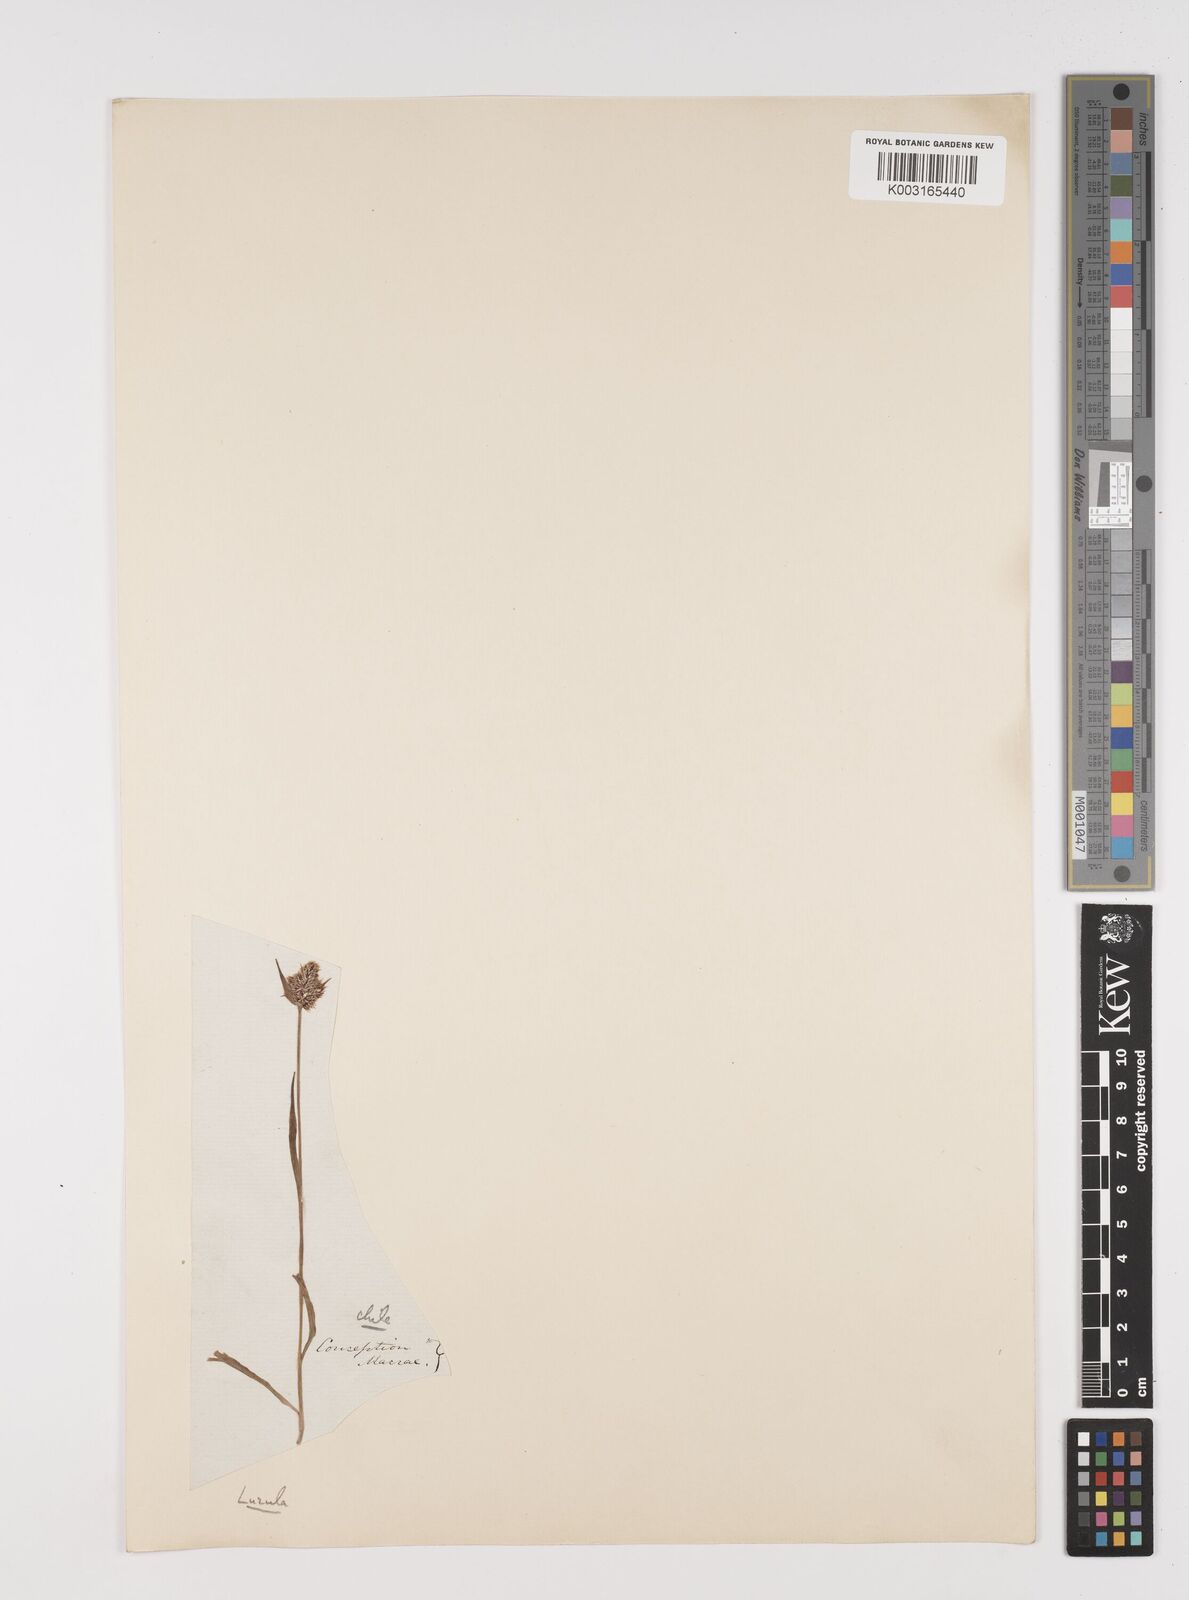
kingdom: Plantae
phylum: Tracheophyta
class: Liliopsida
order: Poales
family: Juncaceae
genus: Luzula
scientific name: Luzula tristachya
